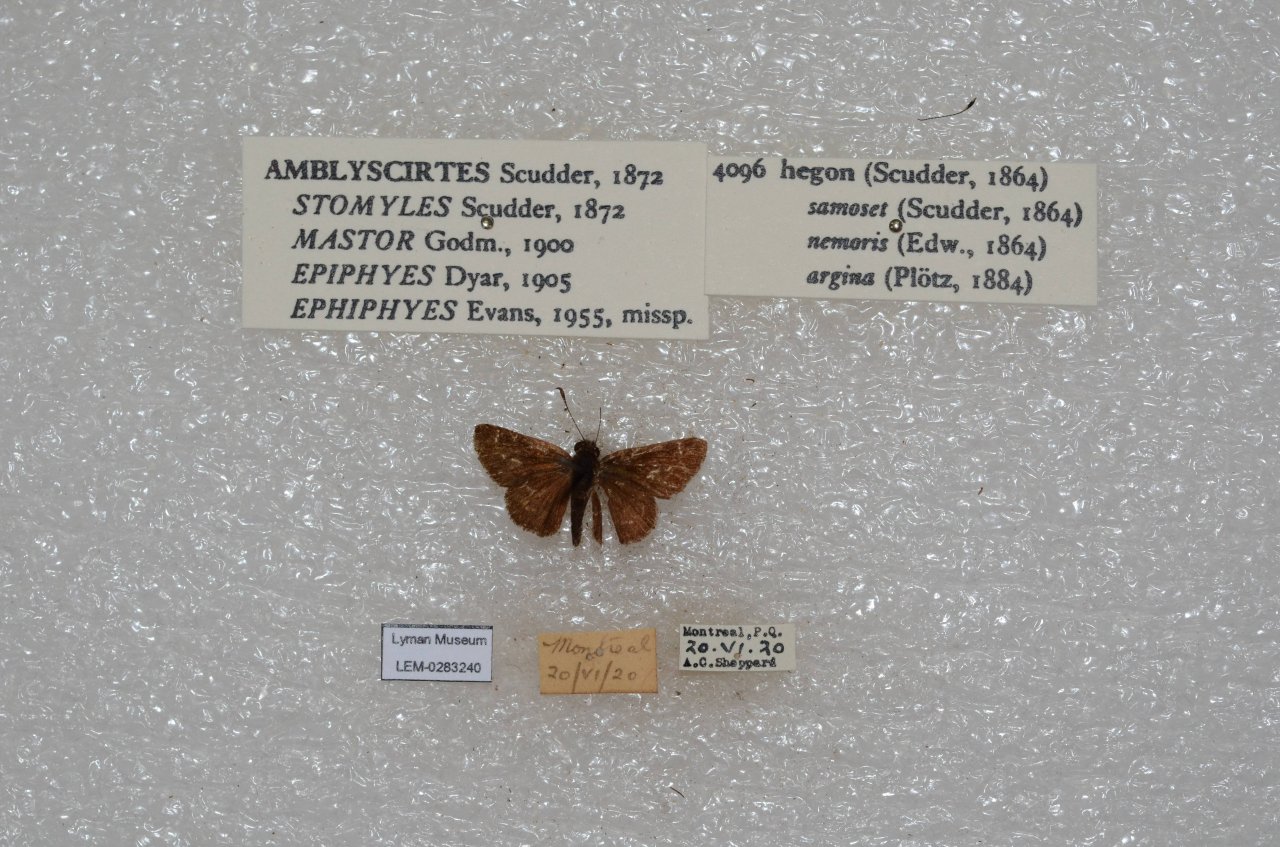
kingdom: Animalia
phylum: Arthropoda
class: Insecta
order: Lepidoptera
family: Hesperiidae
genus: Mastor
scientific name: Mastor hegon
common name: Pepper and Salt Skipper
